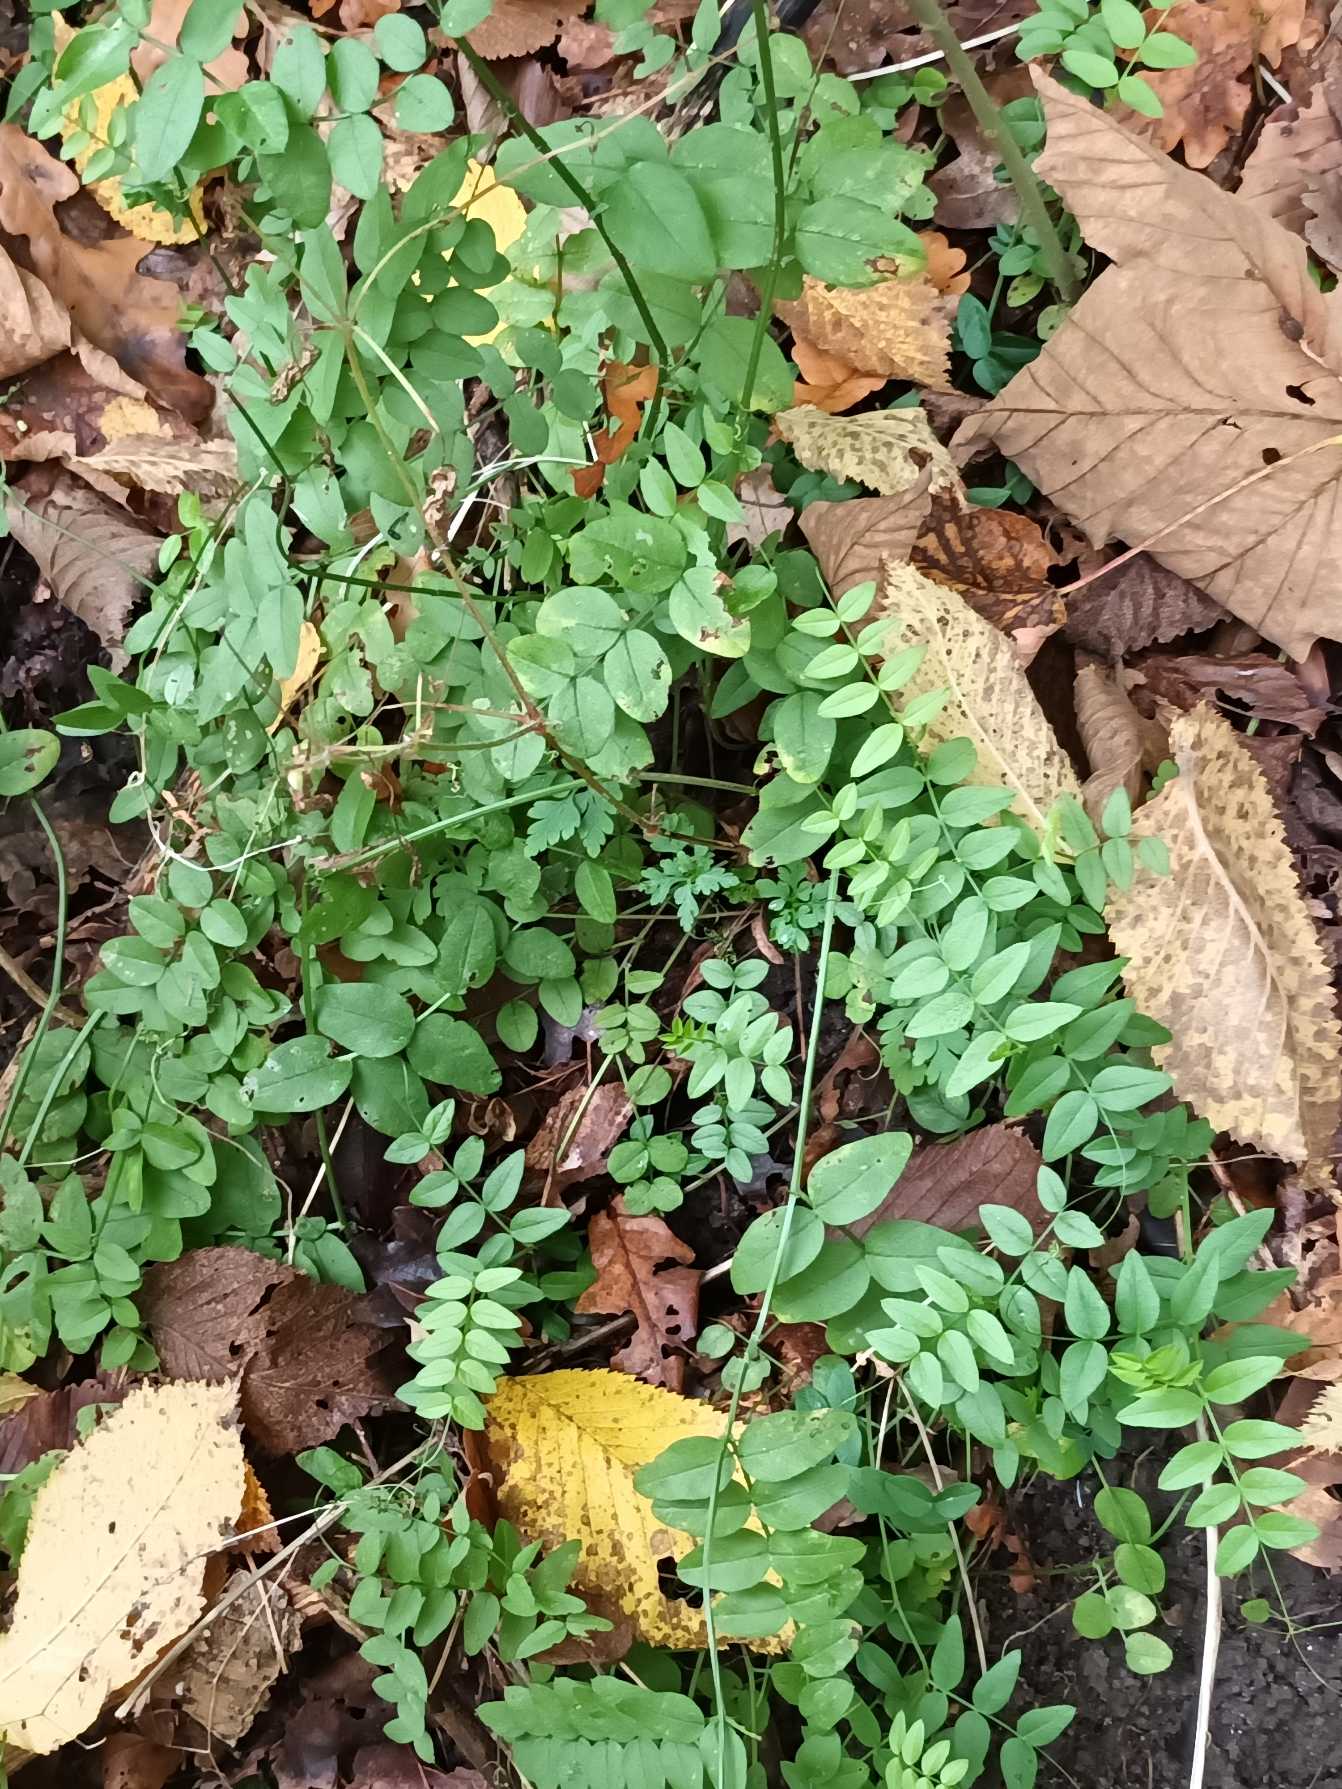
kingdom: Plantae
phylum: Tracheophyta
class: Magnoliopsida
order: Fabales
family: Fabaceae
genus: Vicia
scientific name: Vicia sepium
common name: Gærde-vikke
